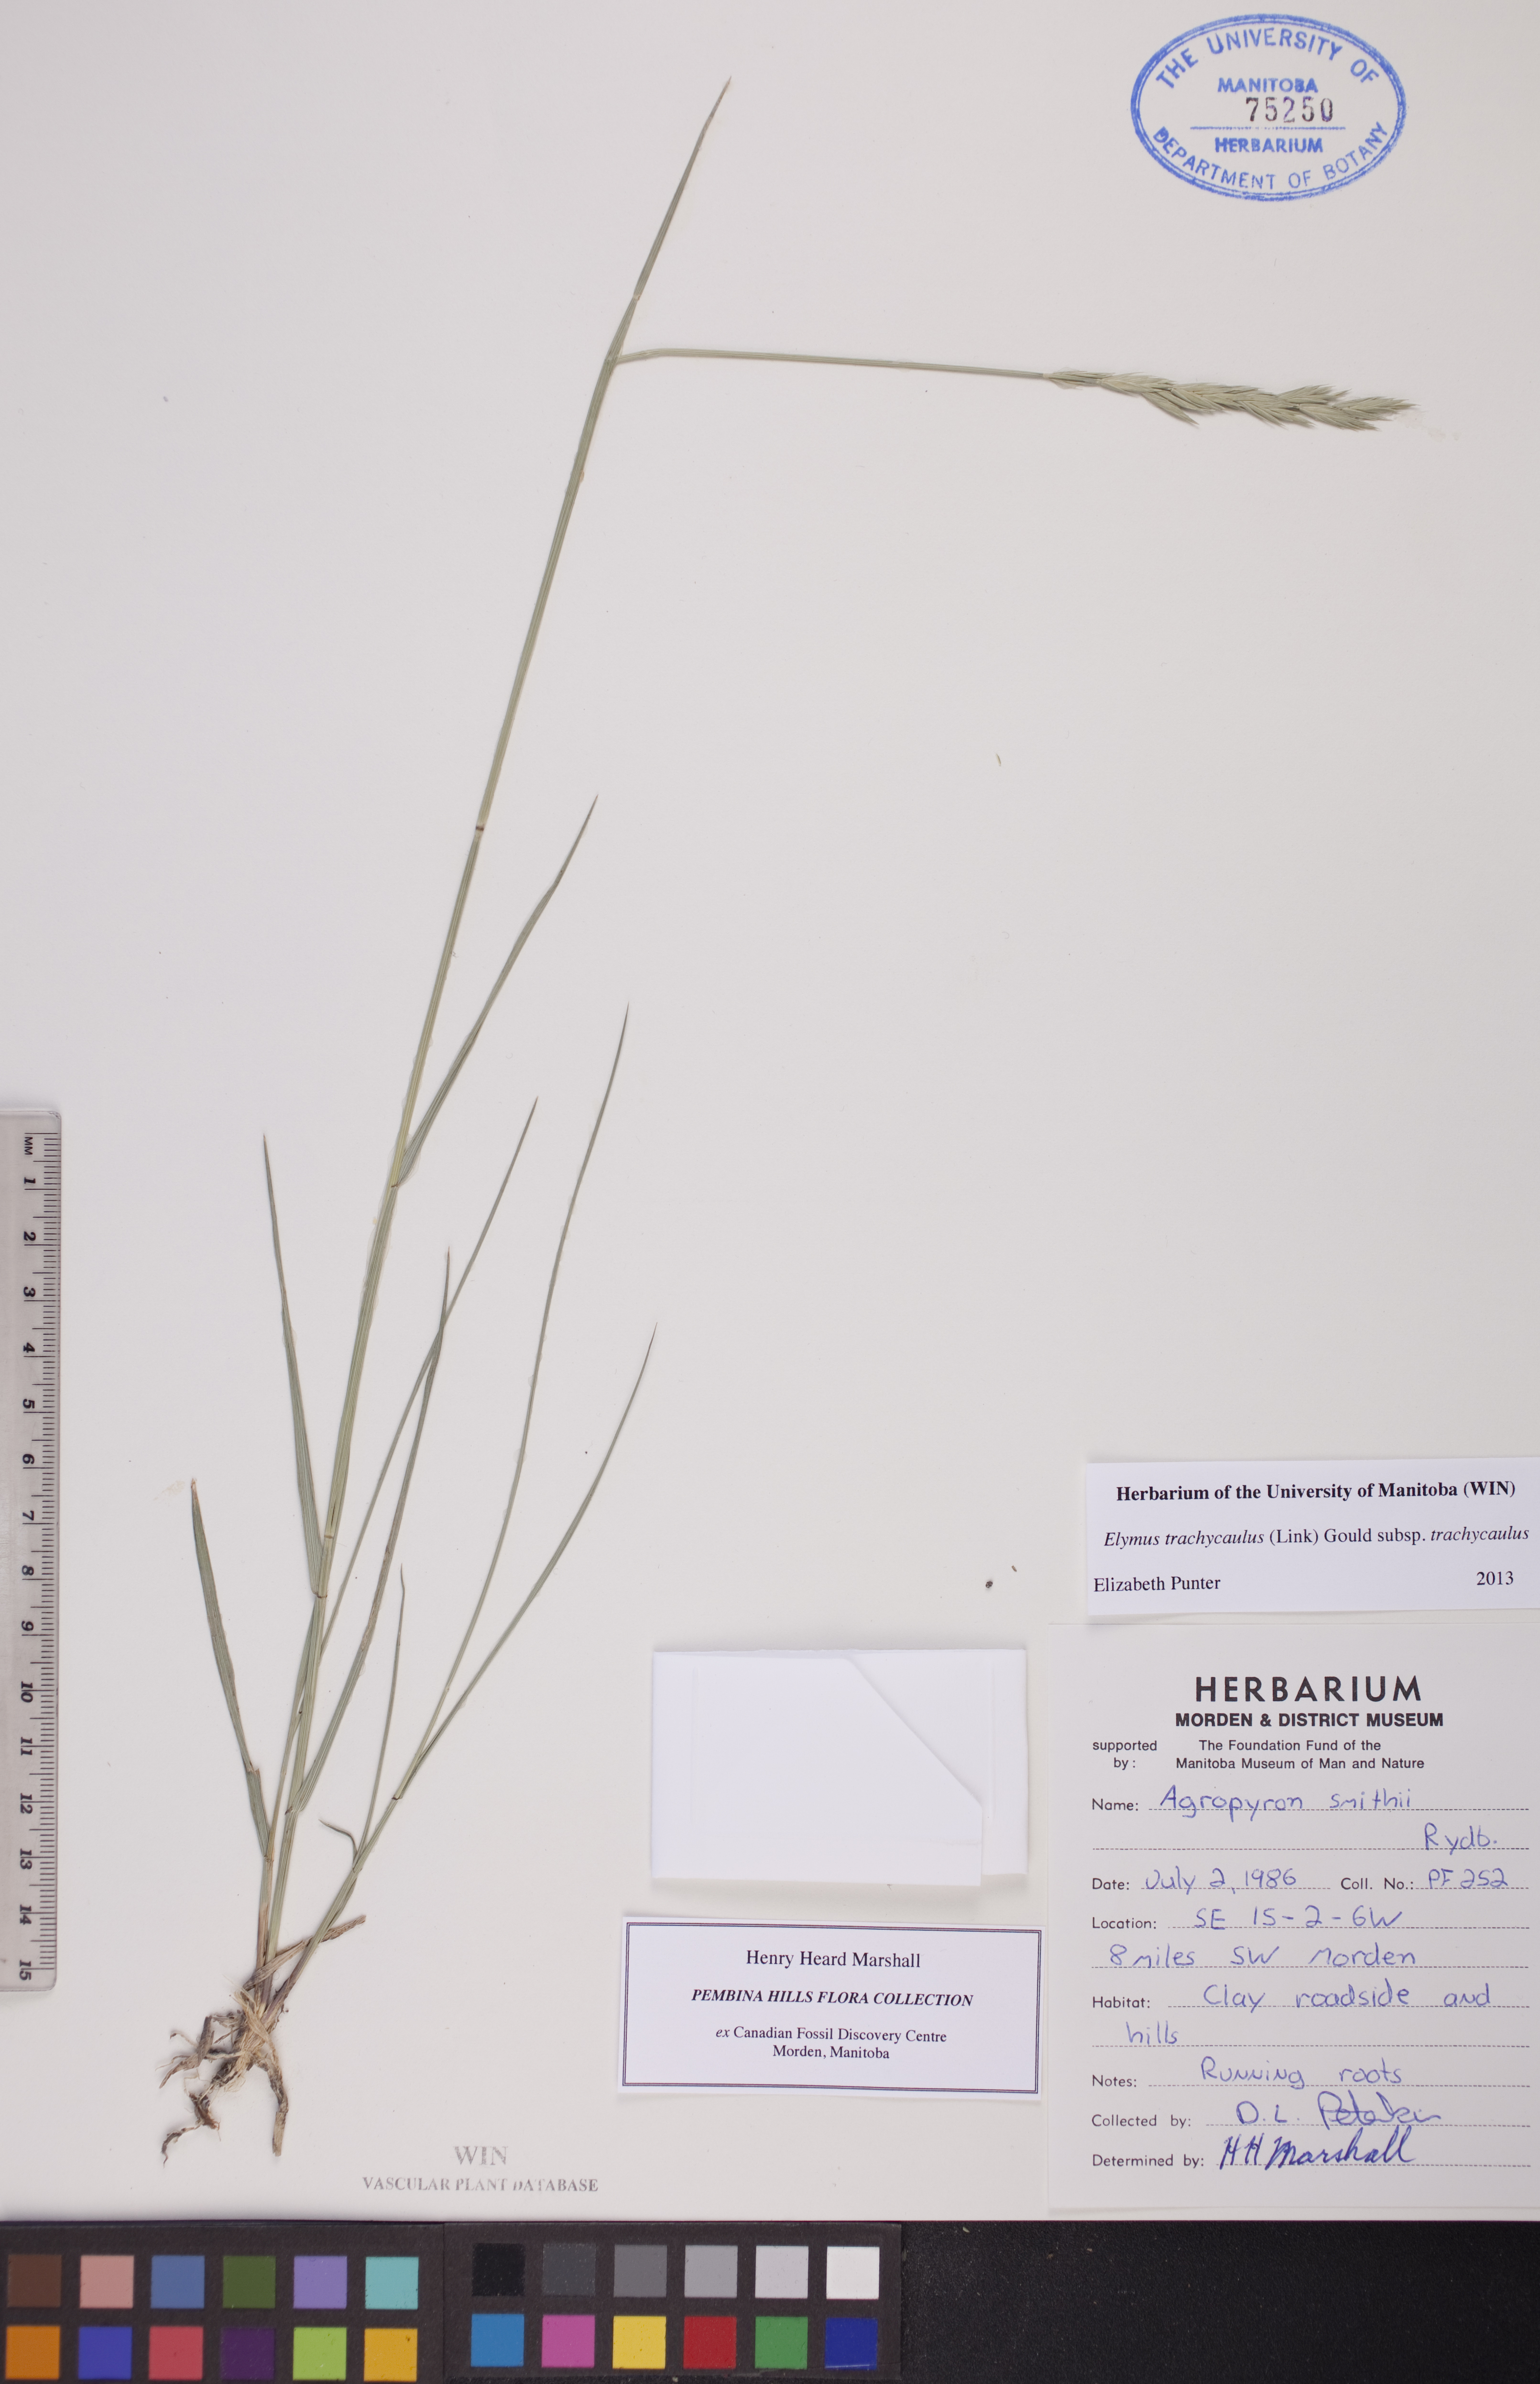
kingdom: Plantae
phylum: Tracheophyta
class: Liliopsida
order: Poales
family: Poaceae
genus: Elymus
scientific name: Elymus violaceus
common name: Arctic wheatgrass
